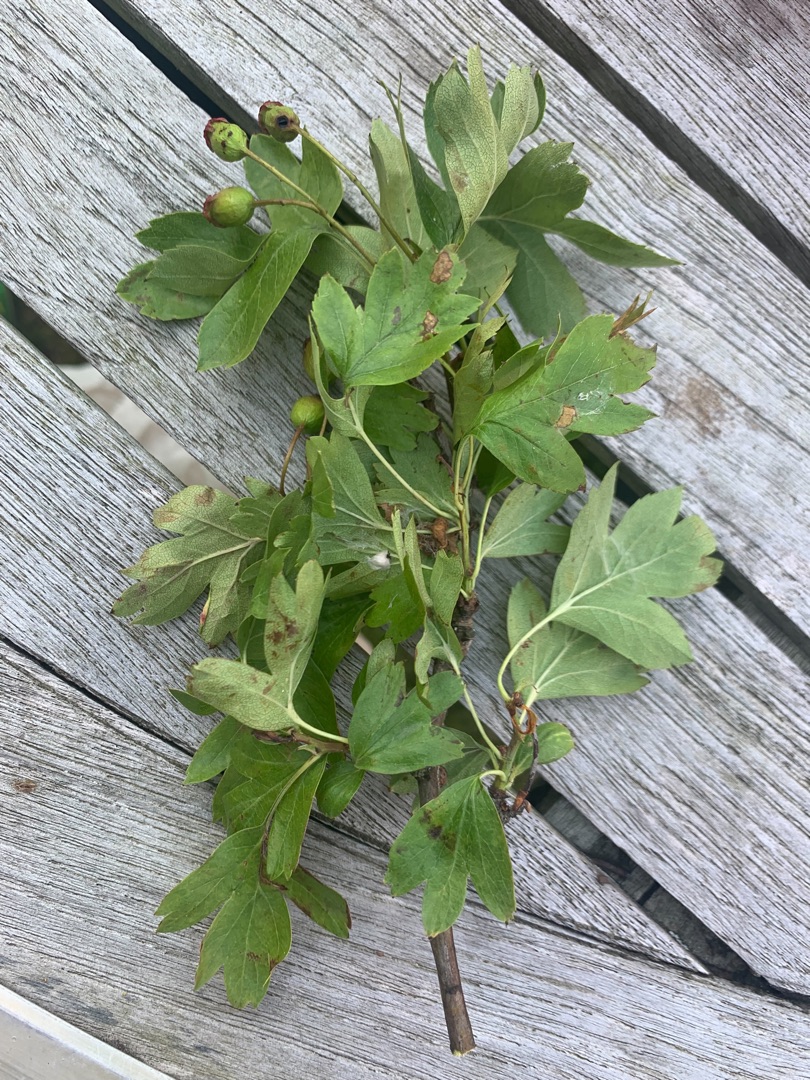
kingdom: Plantae
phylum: Tracheophyta
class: Magnoliopsida
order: Rosales
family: Rosaceae
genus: Crataegus
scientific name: Crataegus monogyna
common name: Engriflet hvidtjørn
